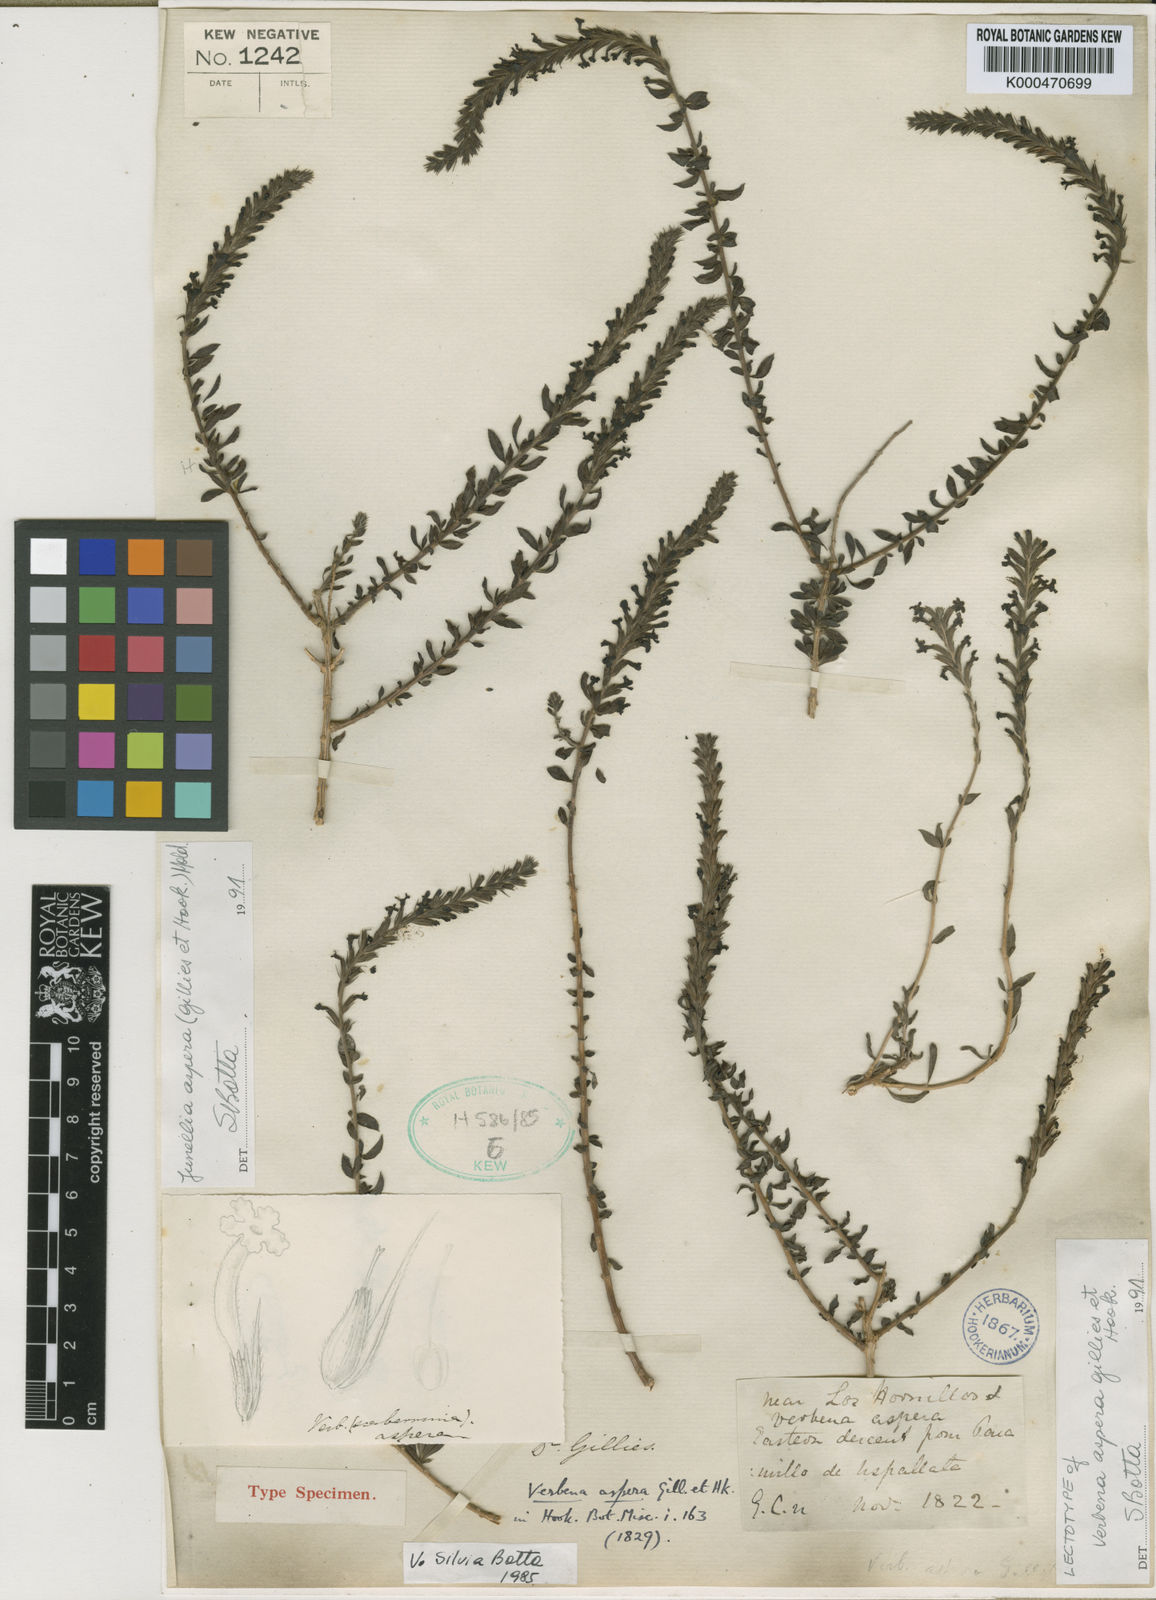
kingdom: Plantae
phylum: Tracheophyta
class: Magnoliopsida
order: Lamiales
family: Verbenaceae
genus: Mulguraea
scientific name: Mulguraea aspera
